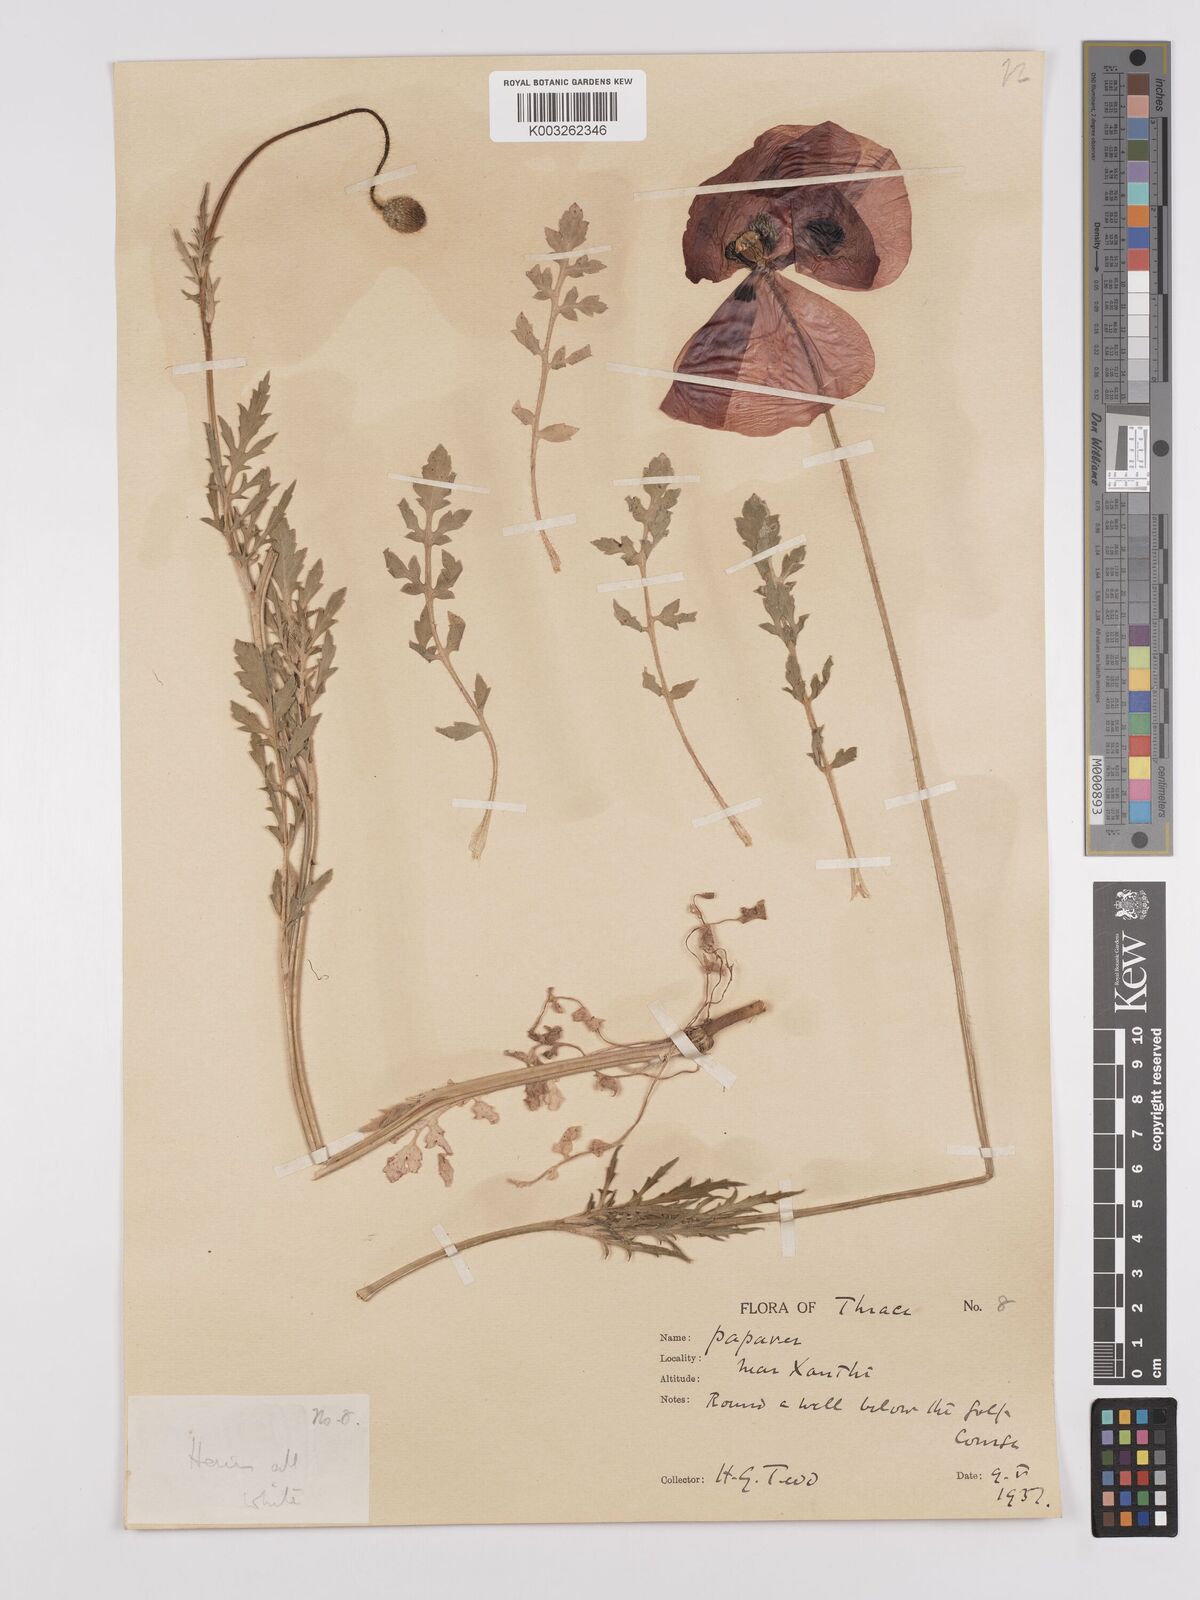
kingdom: Plantae
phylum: Tracheophyta
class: Magnoliopsida
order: Ranunculales
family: Papaveraceae
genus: Papaver
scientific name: Papaver rhoeas
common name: Corn poppy
